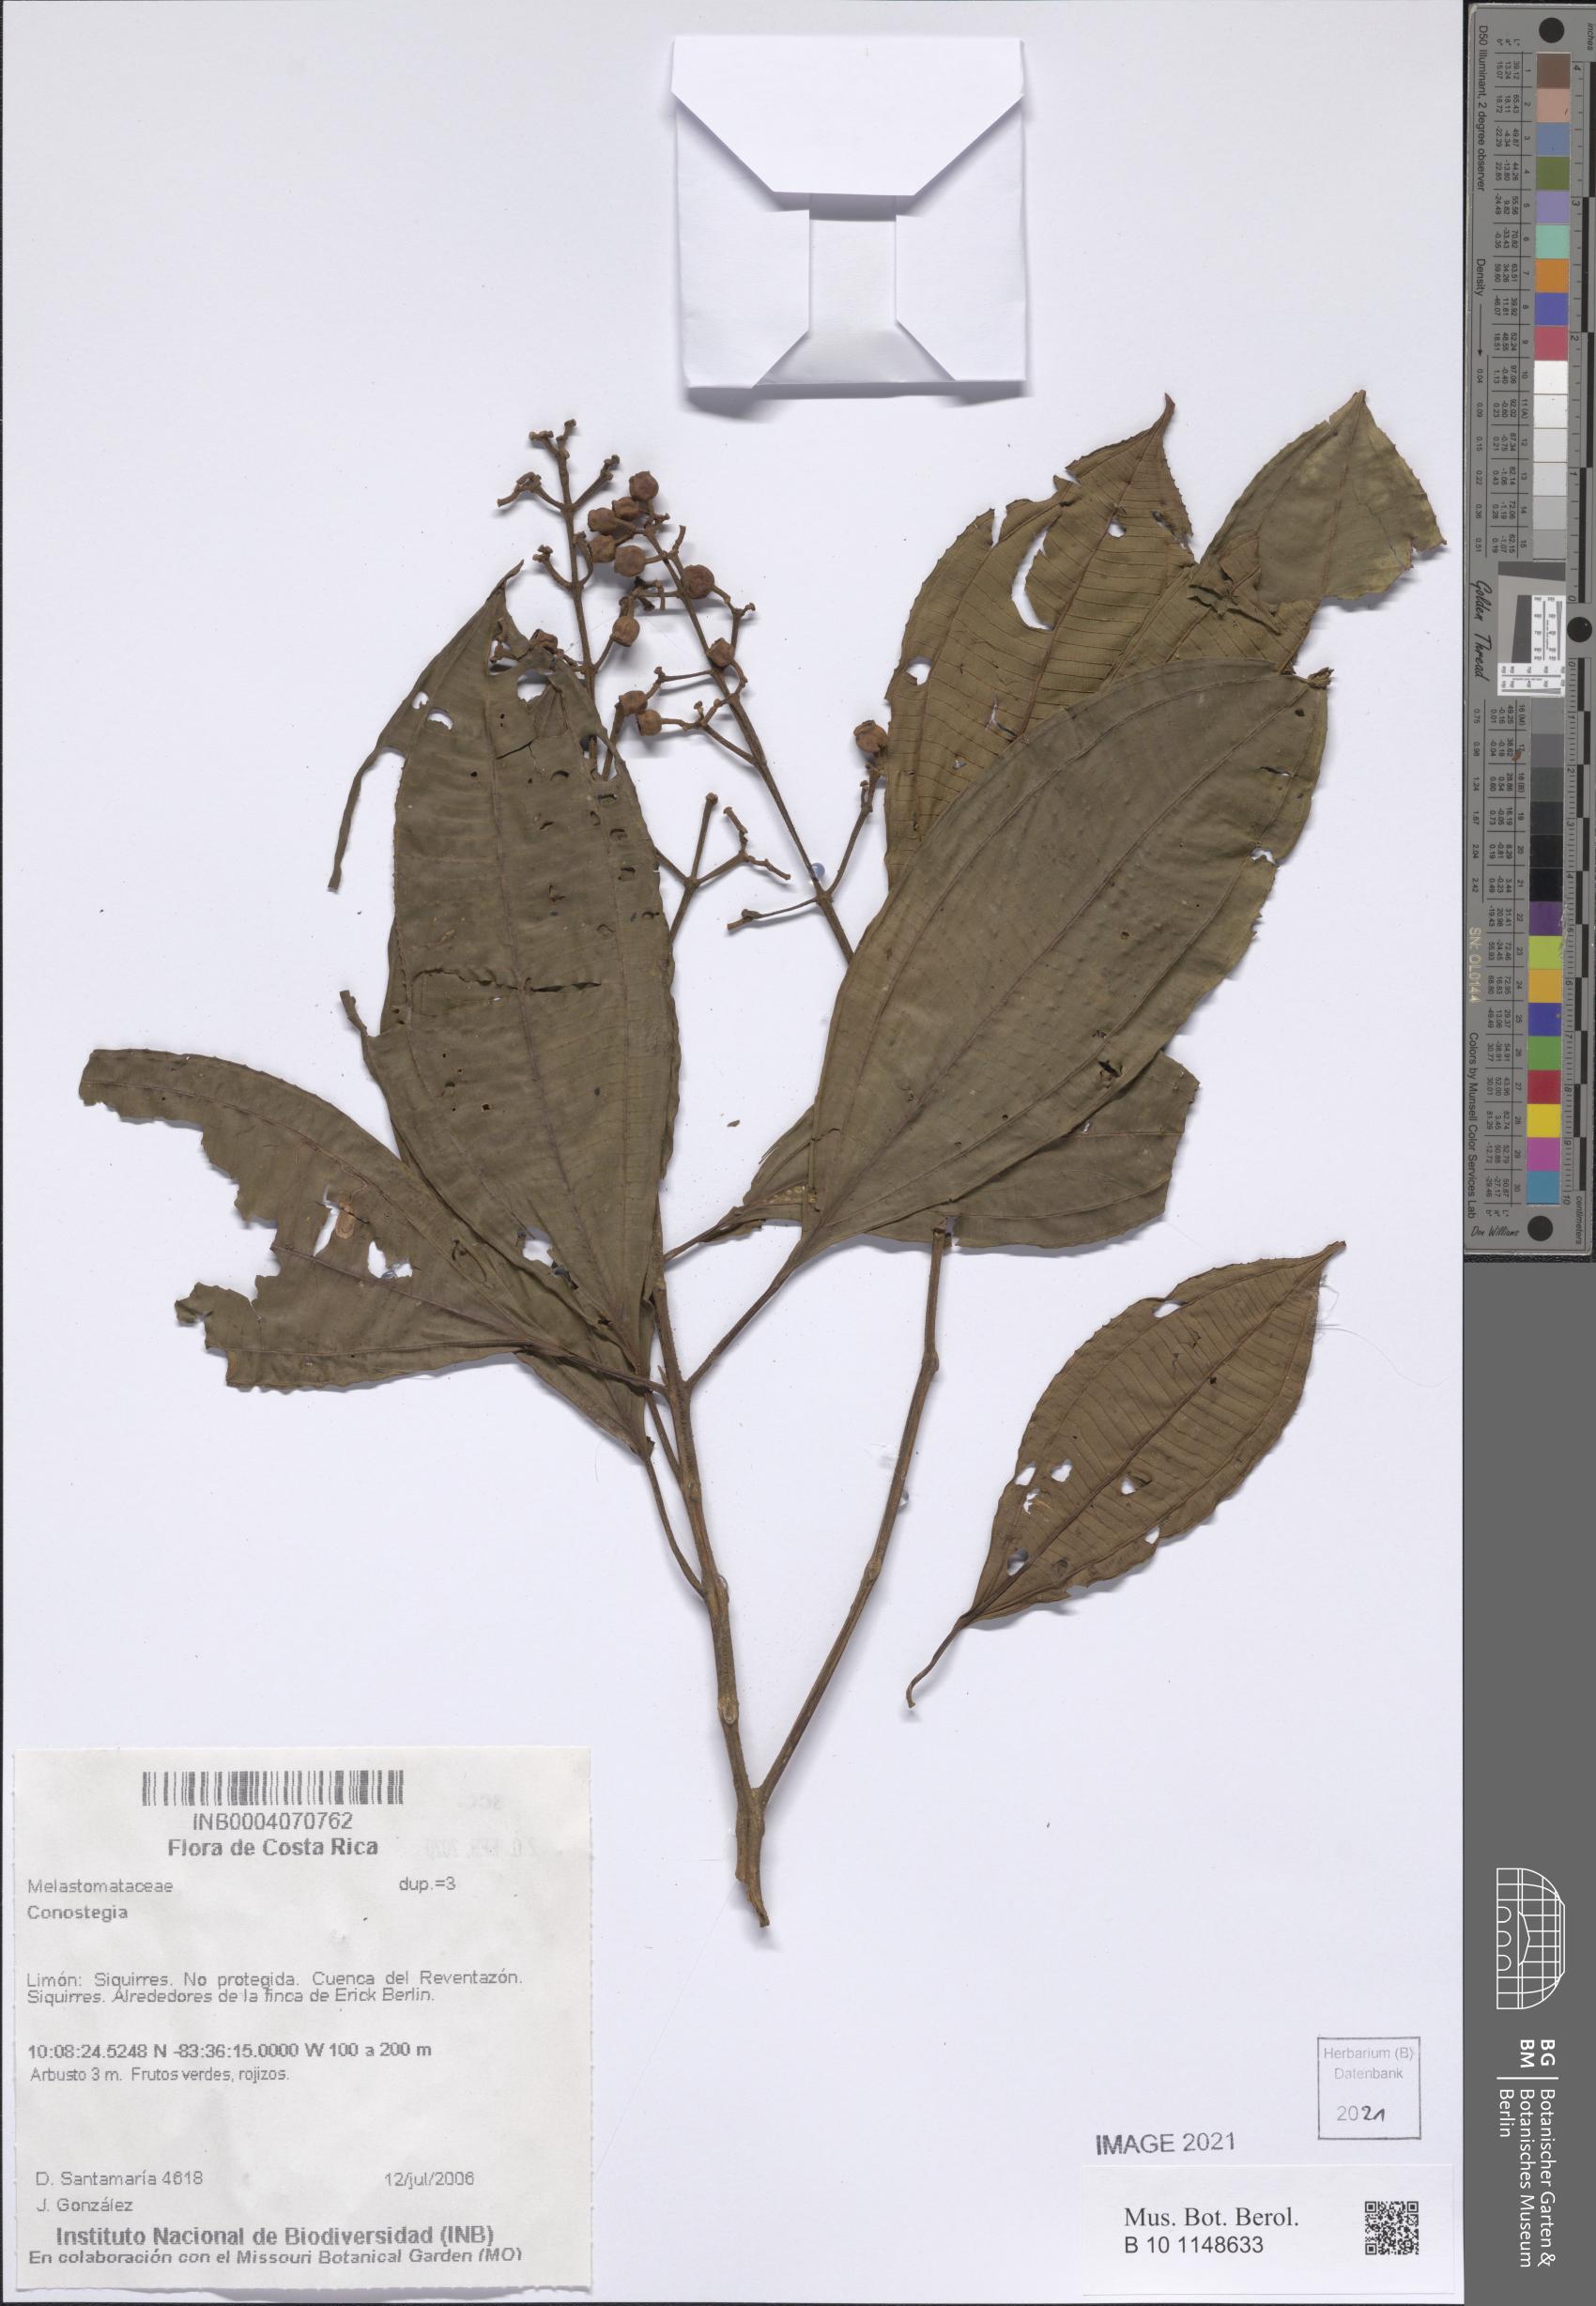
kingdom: Plantae
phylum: Tracheophyta
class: Magnoliopsida
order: Myrtales
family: Melastomataceae
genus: Miconia
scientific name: Miconia
